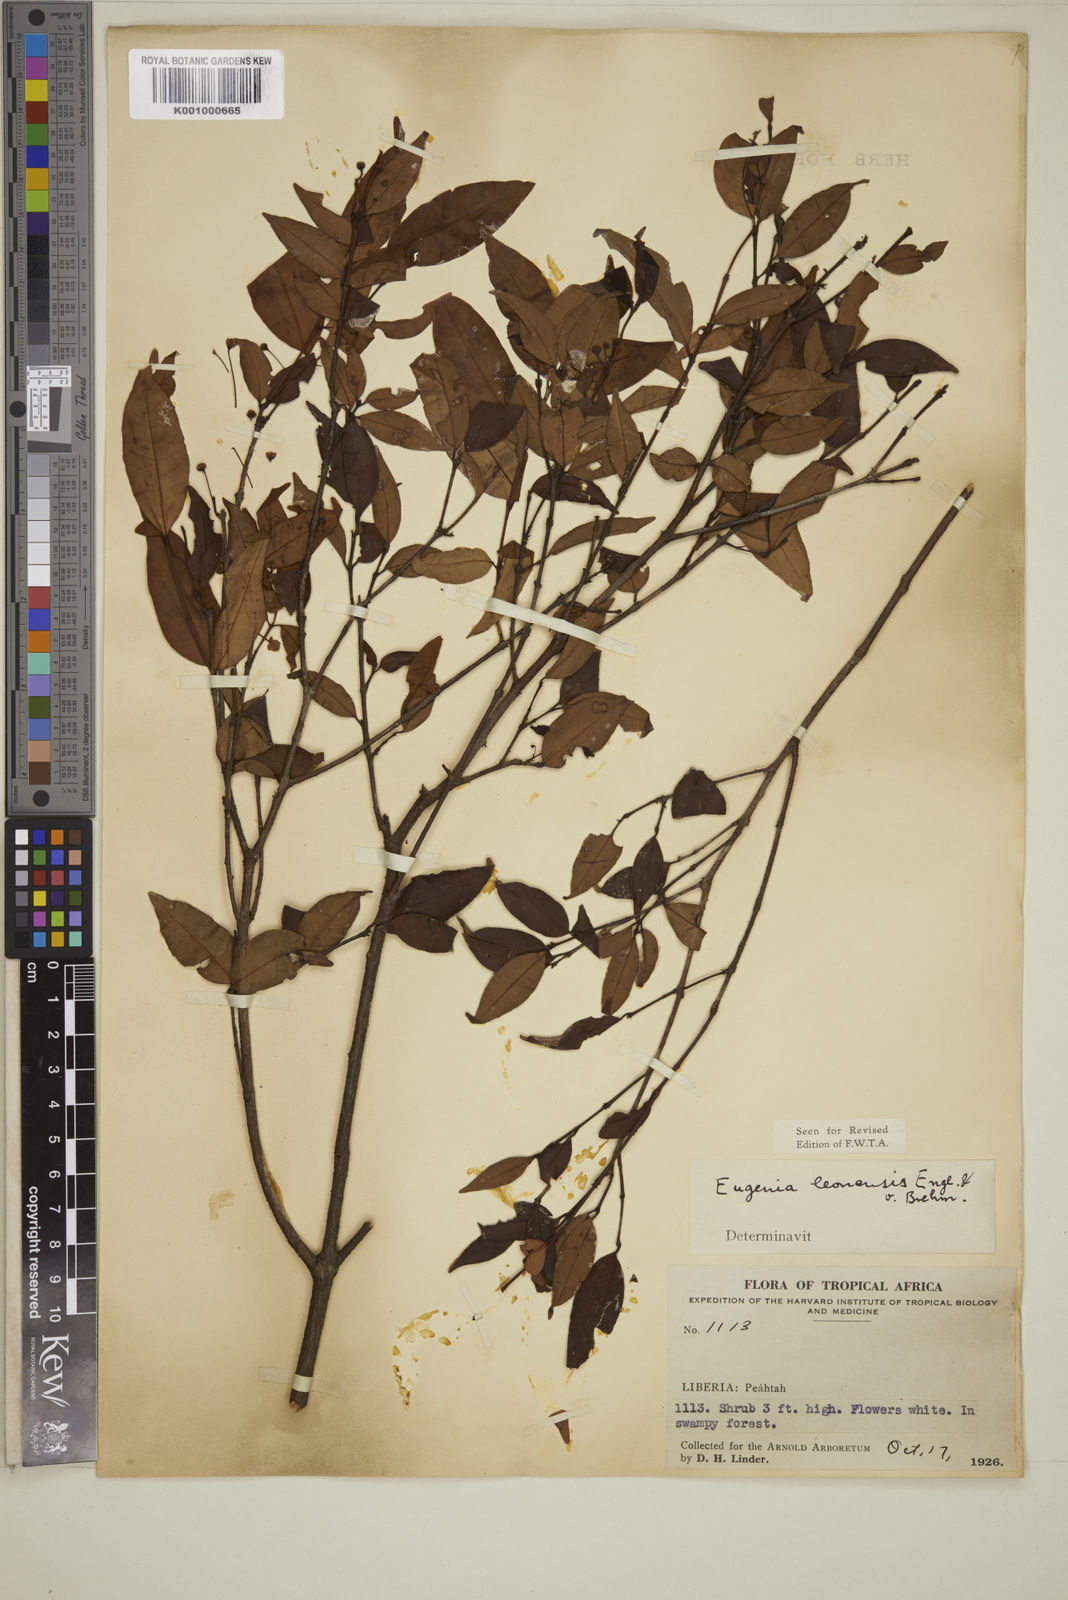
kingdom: Plantae
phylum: Tracheophyta
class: Magnoliopsida
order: Myrtales
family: Myrtaceae
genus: Eugenia
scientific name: Eugenia leonensis
